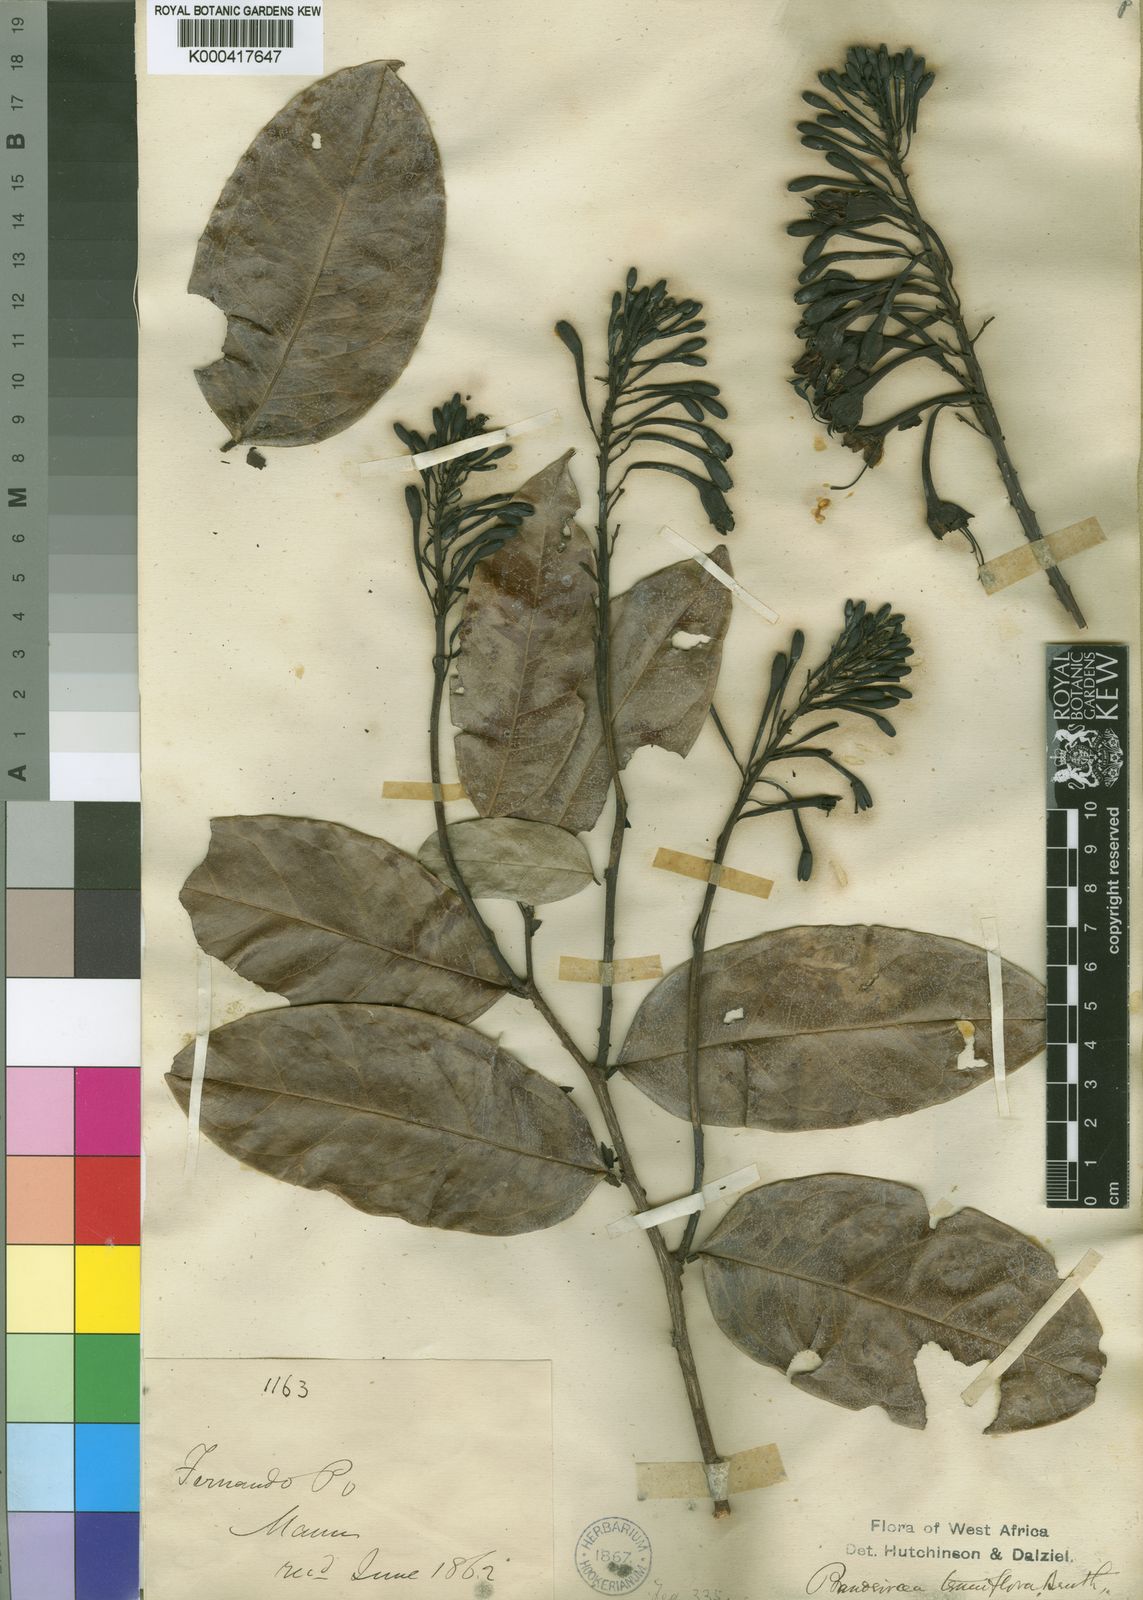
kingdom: Plantae
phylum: Tracheophyta
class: Magnoliopsida
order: Fabales
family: Fabaceae
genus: Griffonia
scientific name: Griffonia physocarpa
